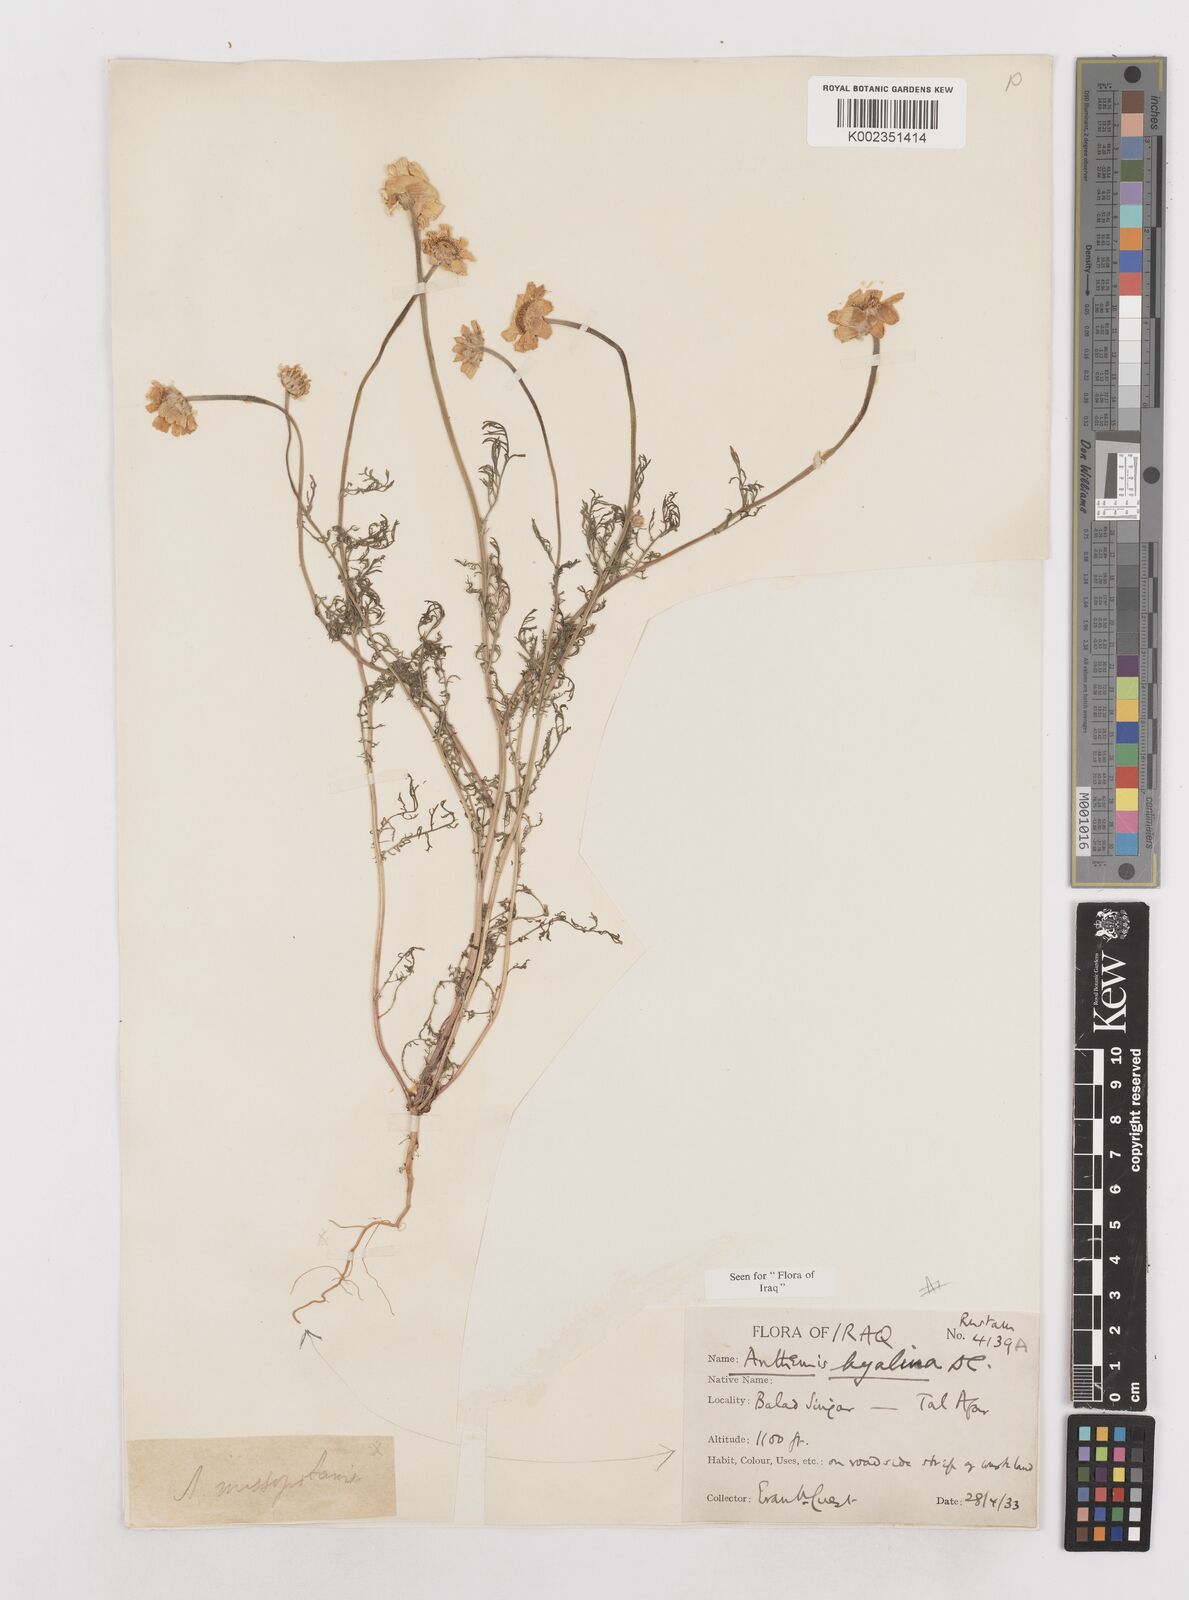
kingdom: Plantae
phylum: Tracheophyta
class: Magnoliopsida
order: Asterales
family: Asteraceae
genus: Anthemis
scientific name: Anthemis hyalina
